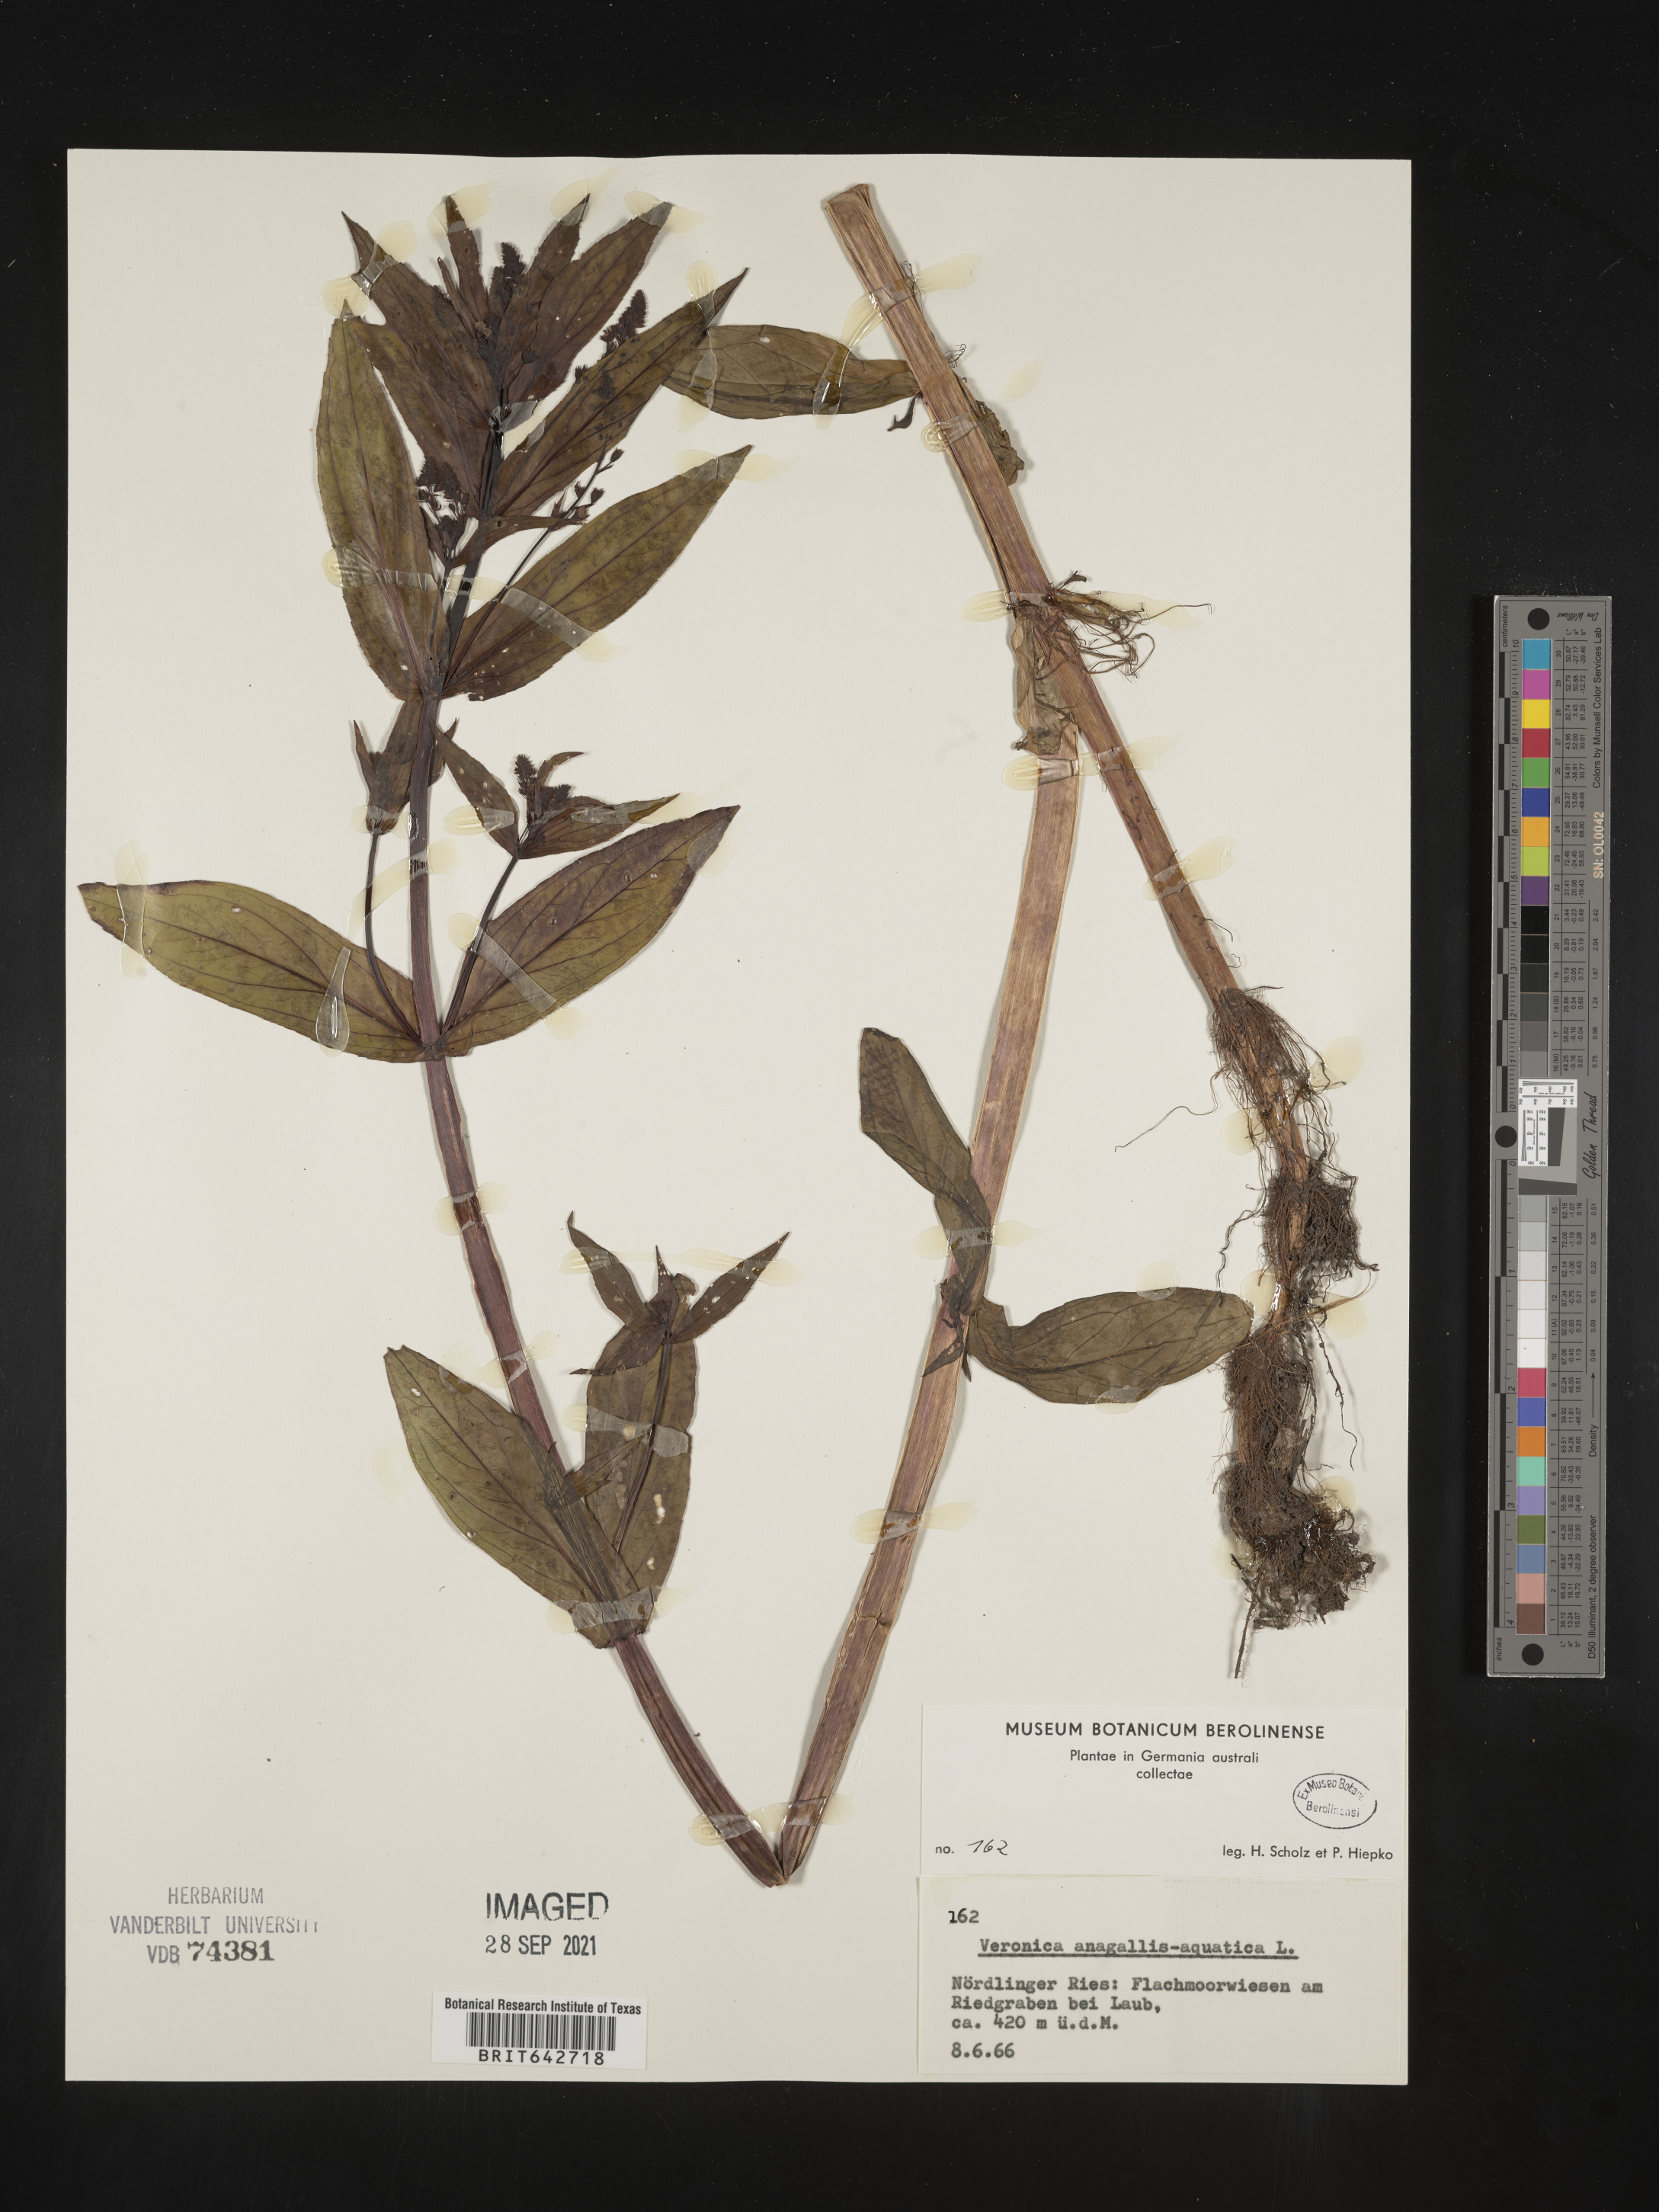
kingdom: Plantae
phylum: Tracheophyta
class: Magnoliopsida
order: Lamiales
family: Plantaginaceae
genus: Veronica
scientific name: Veronica
